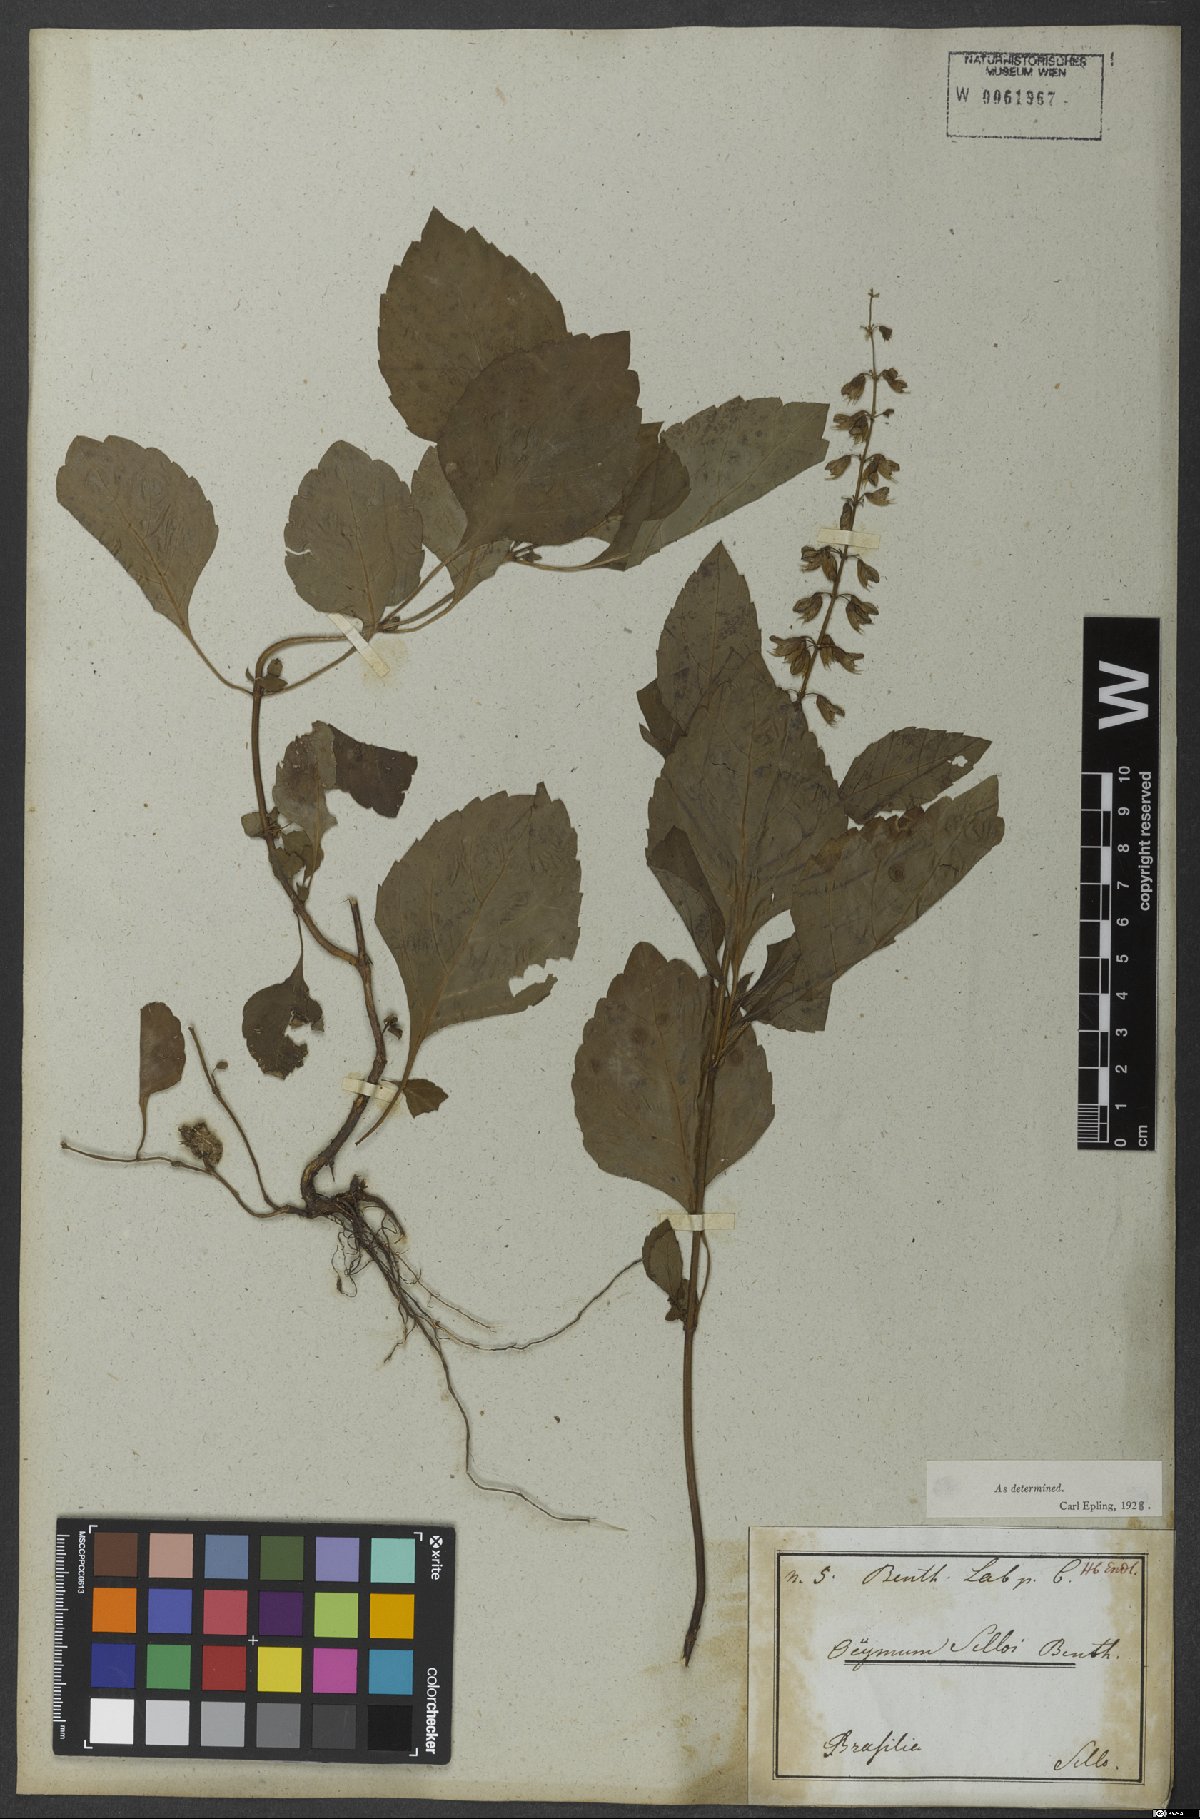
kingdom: Plantae
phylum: Tracheophyta
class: Magnoliopsida
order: Lamiales
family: Lamiaceae
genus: Ocimum
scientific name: Ocimum carnosum
